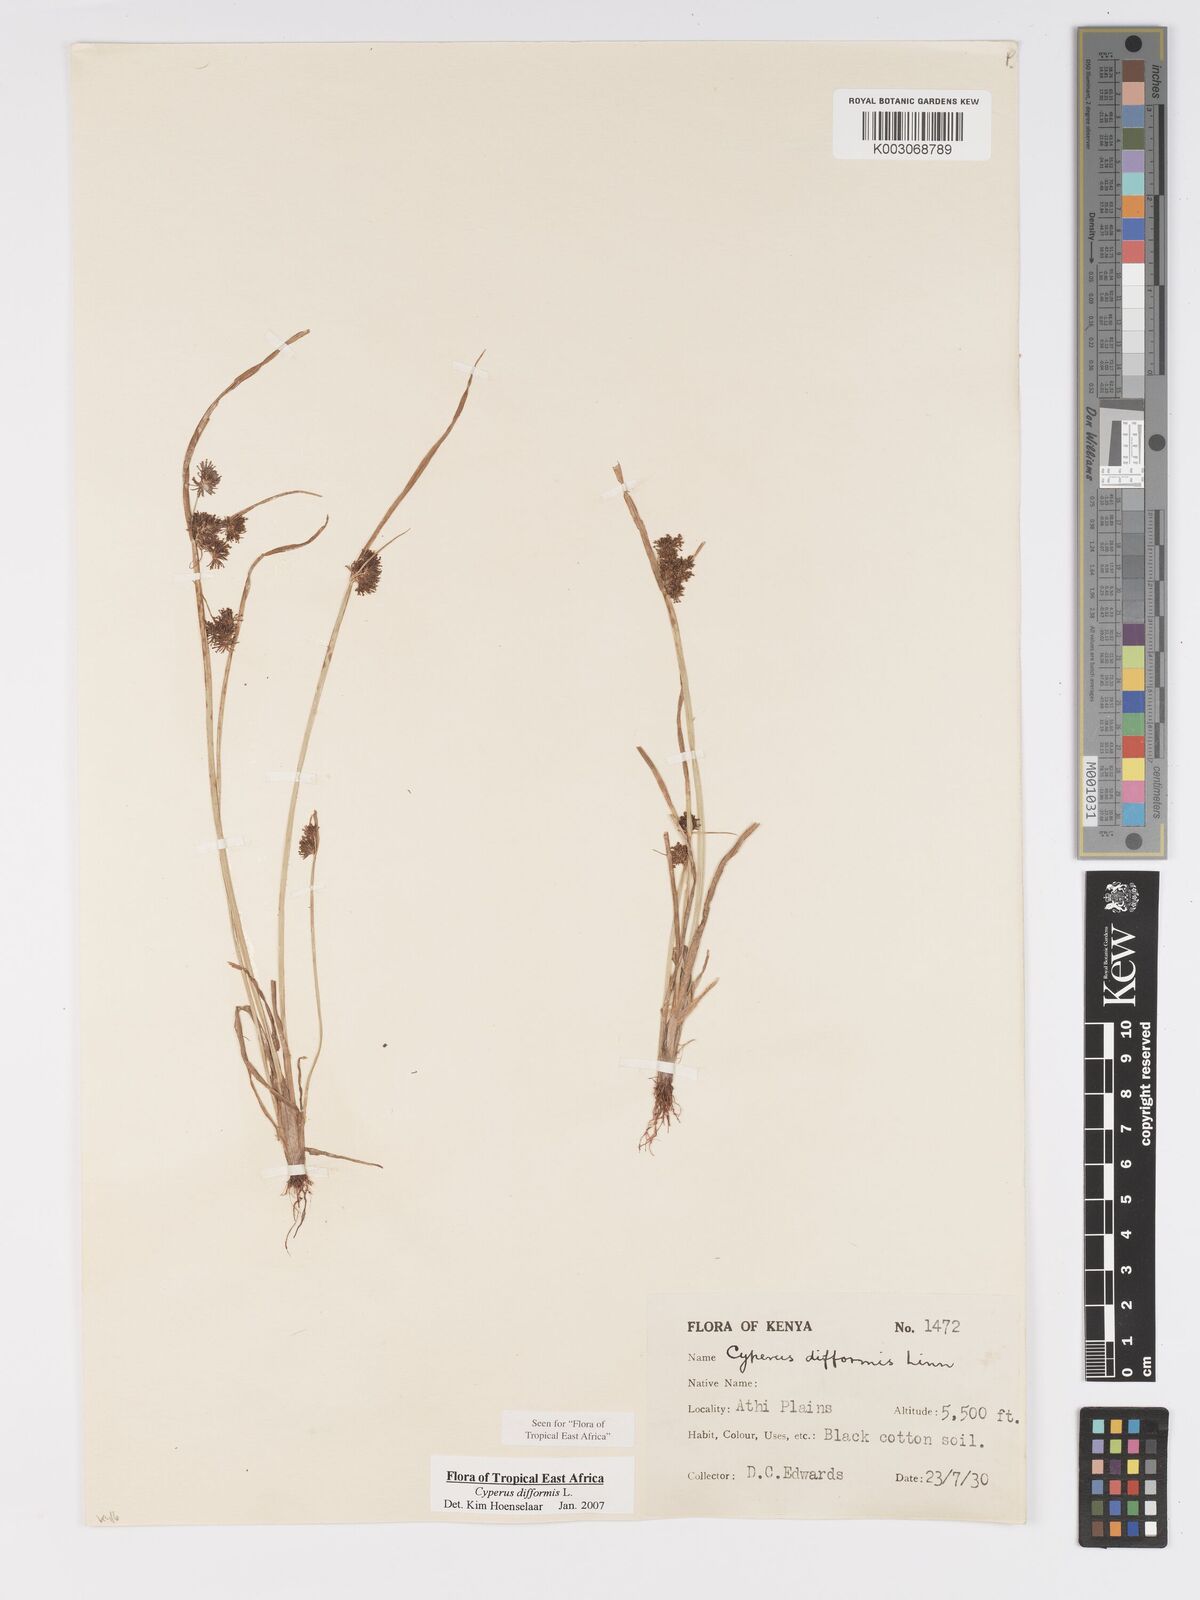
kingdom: Plantae
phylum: Tracheophyta
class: Liliopsida
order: Poales
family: Cyperaceae
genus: Cyperus
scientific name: Cyperus difformis
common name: Variable flatsedge
